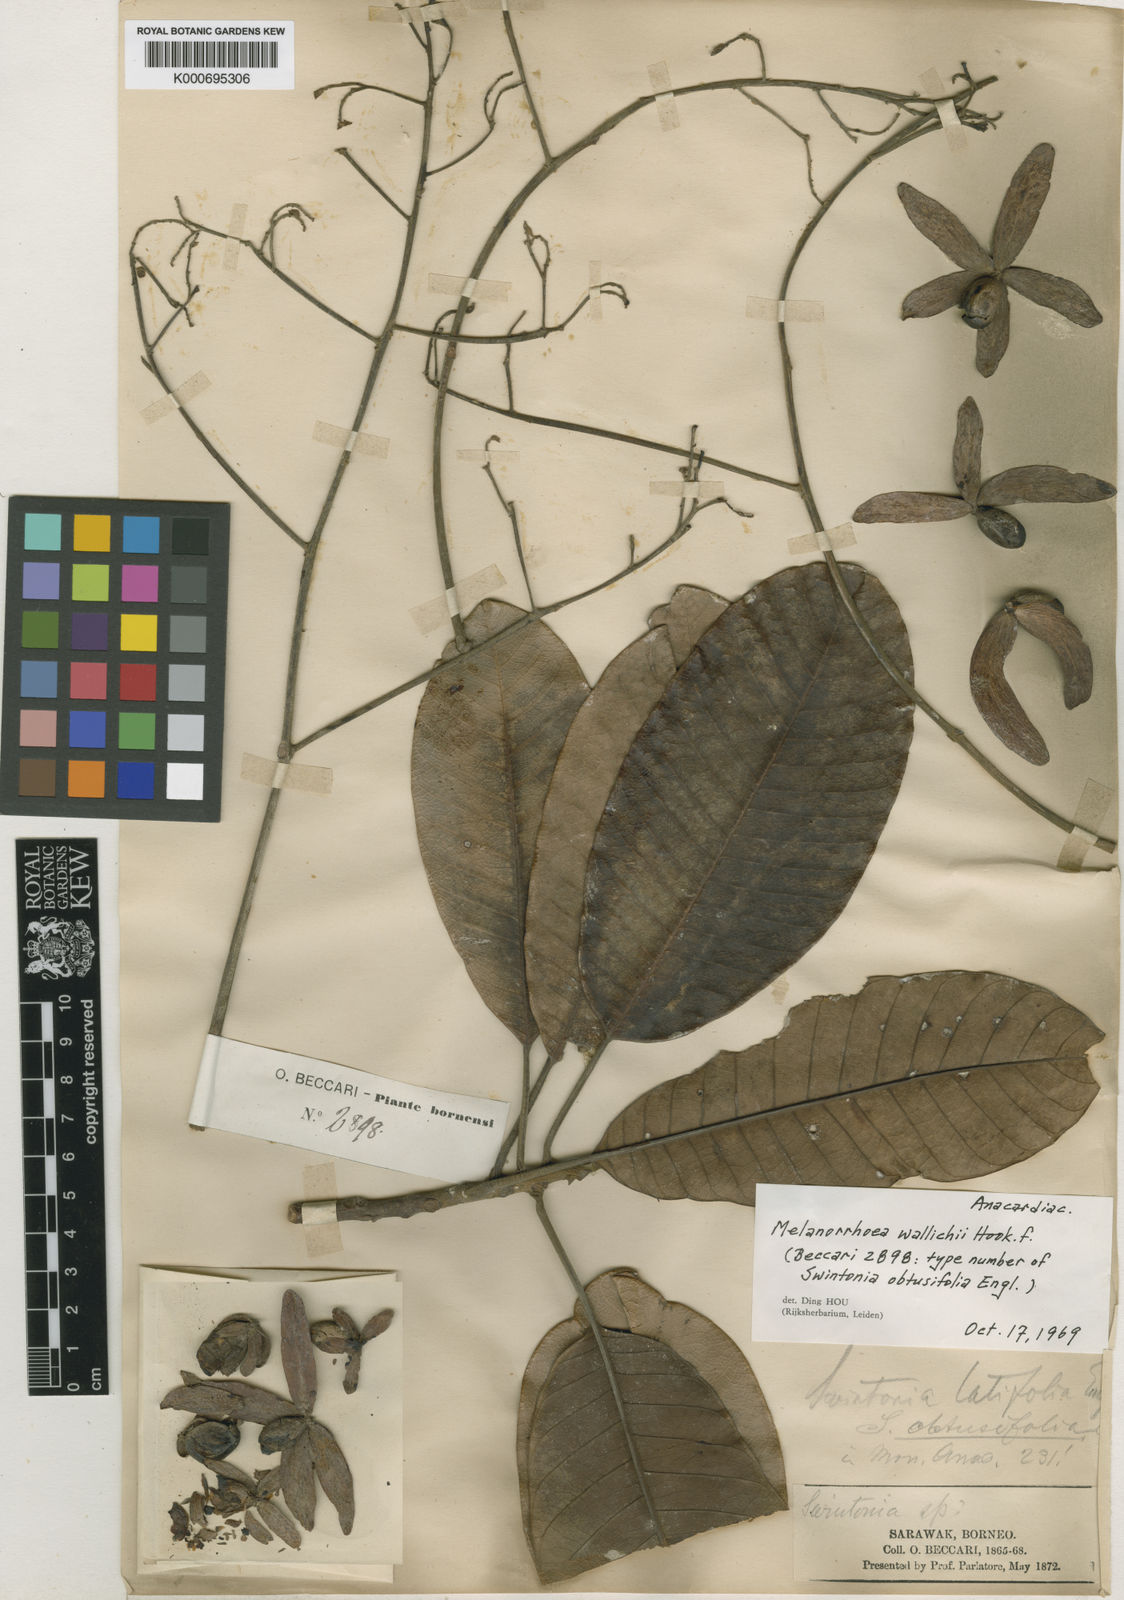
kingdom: Plantae
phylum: Tracheophyta
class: Magnoliopsida
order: Sapindales
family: Anacardiaceae
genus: Gluta
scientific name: Gluta wallichii
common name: Common rengas
